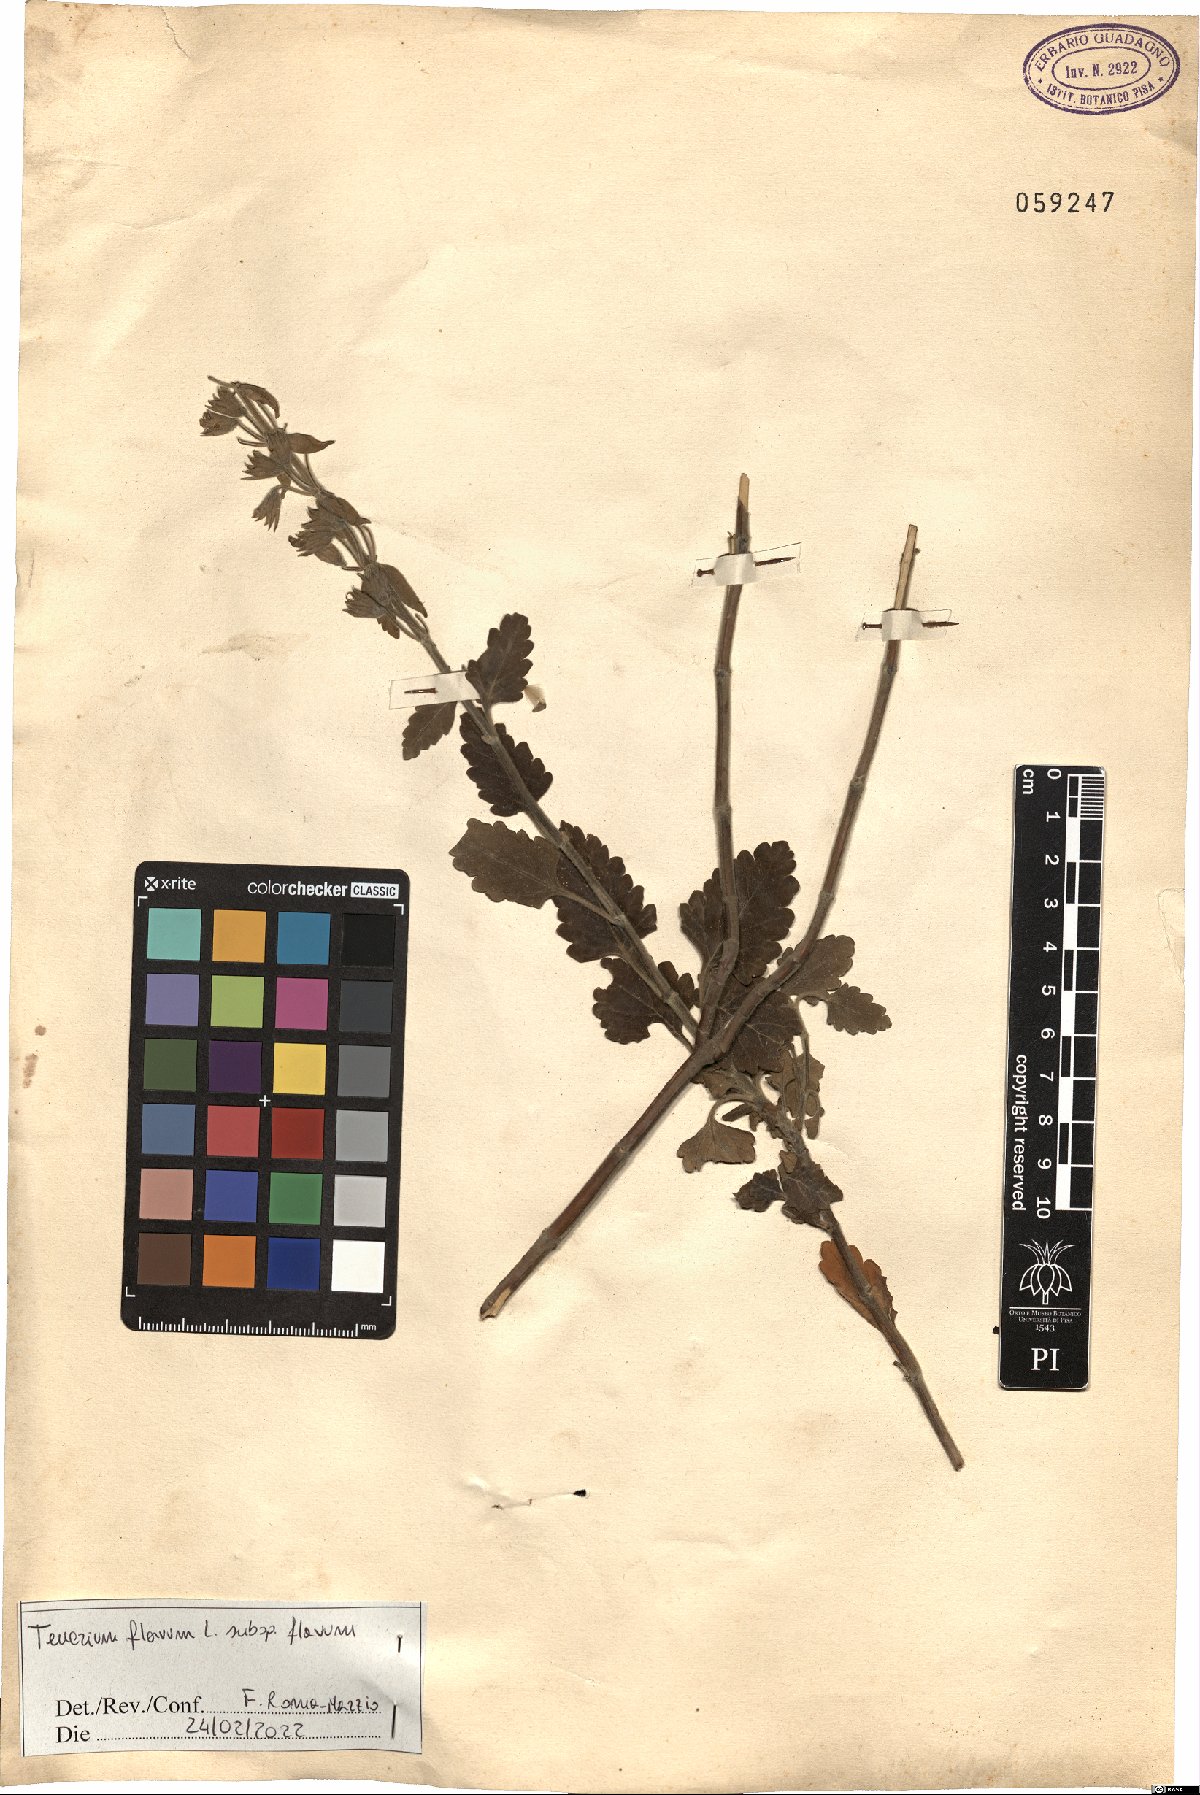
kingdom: Plantae
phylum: Tracheophyta
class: Magnoliopsida
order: Lamiales
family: Lamiaceae
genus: Teucrium
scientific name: Teucrium flavum
